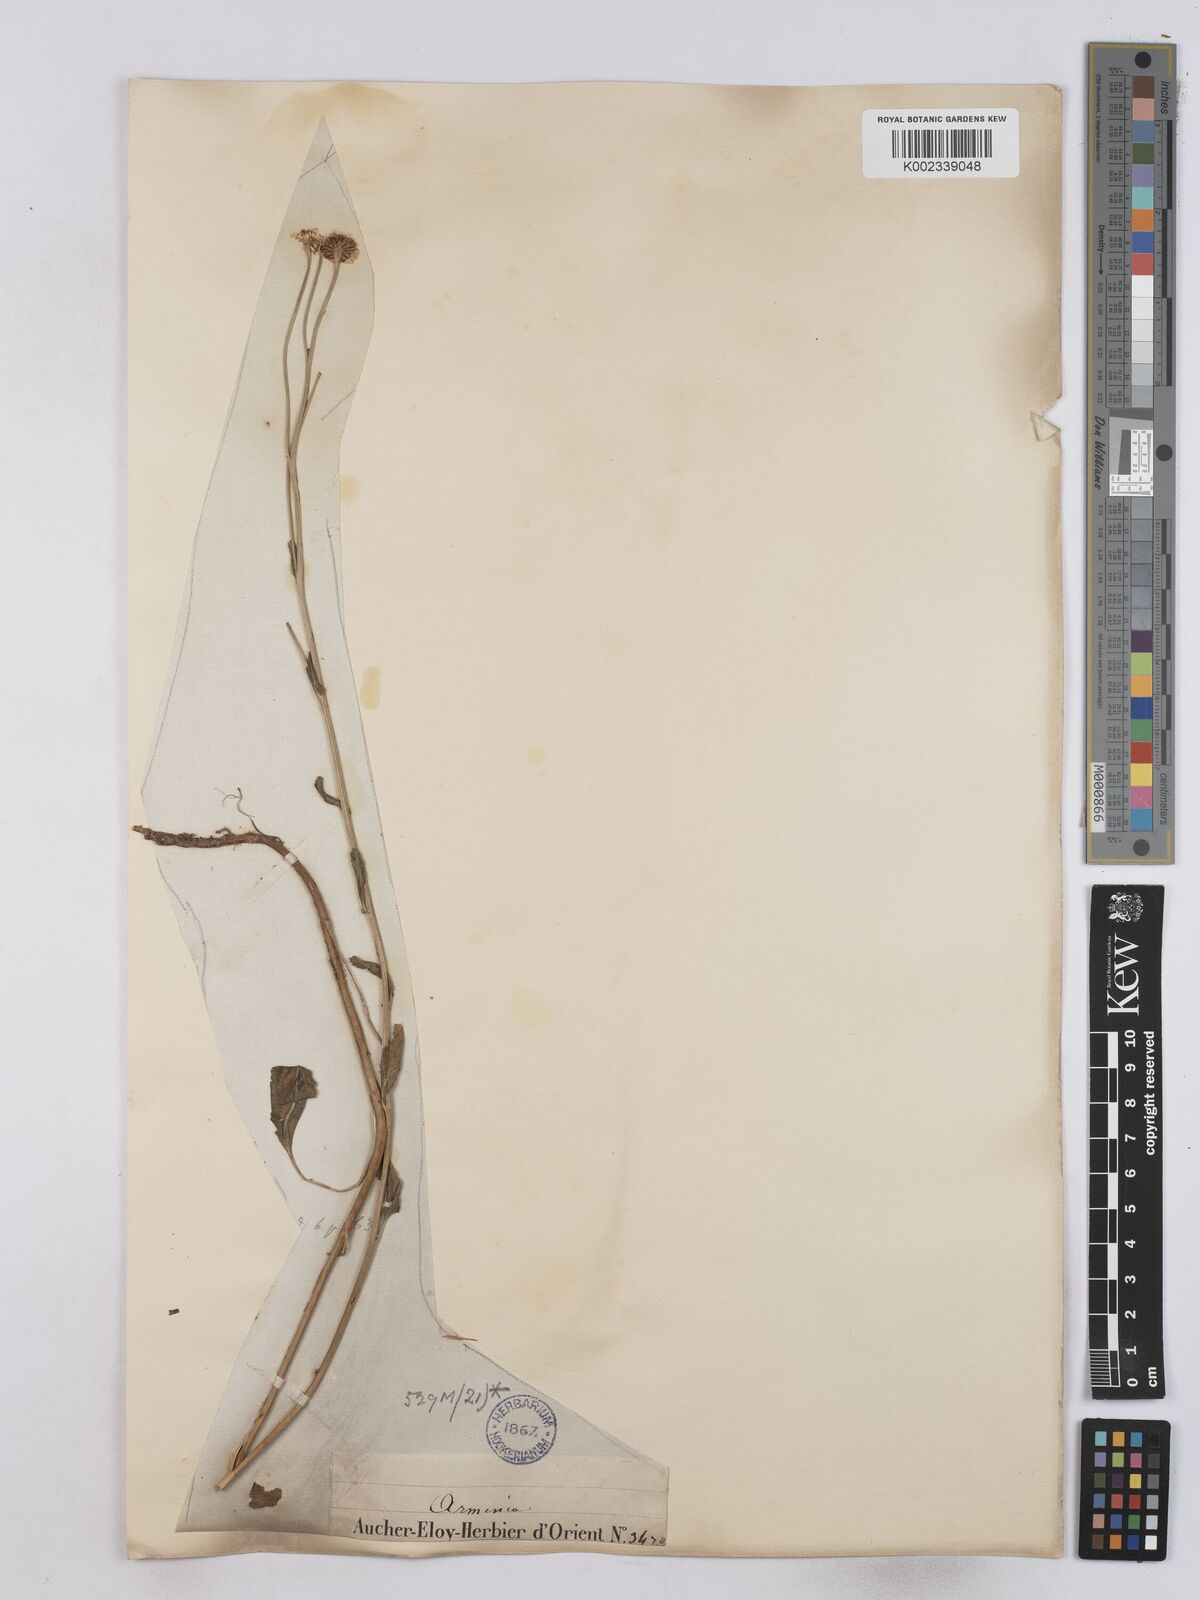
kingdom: Plantae
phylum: Tracheophyta
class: Magnoliopsida
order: Asterales
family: Asteraceae
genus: Tanacetum
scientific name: Tanacetum balsamita
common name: Costmary
